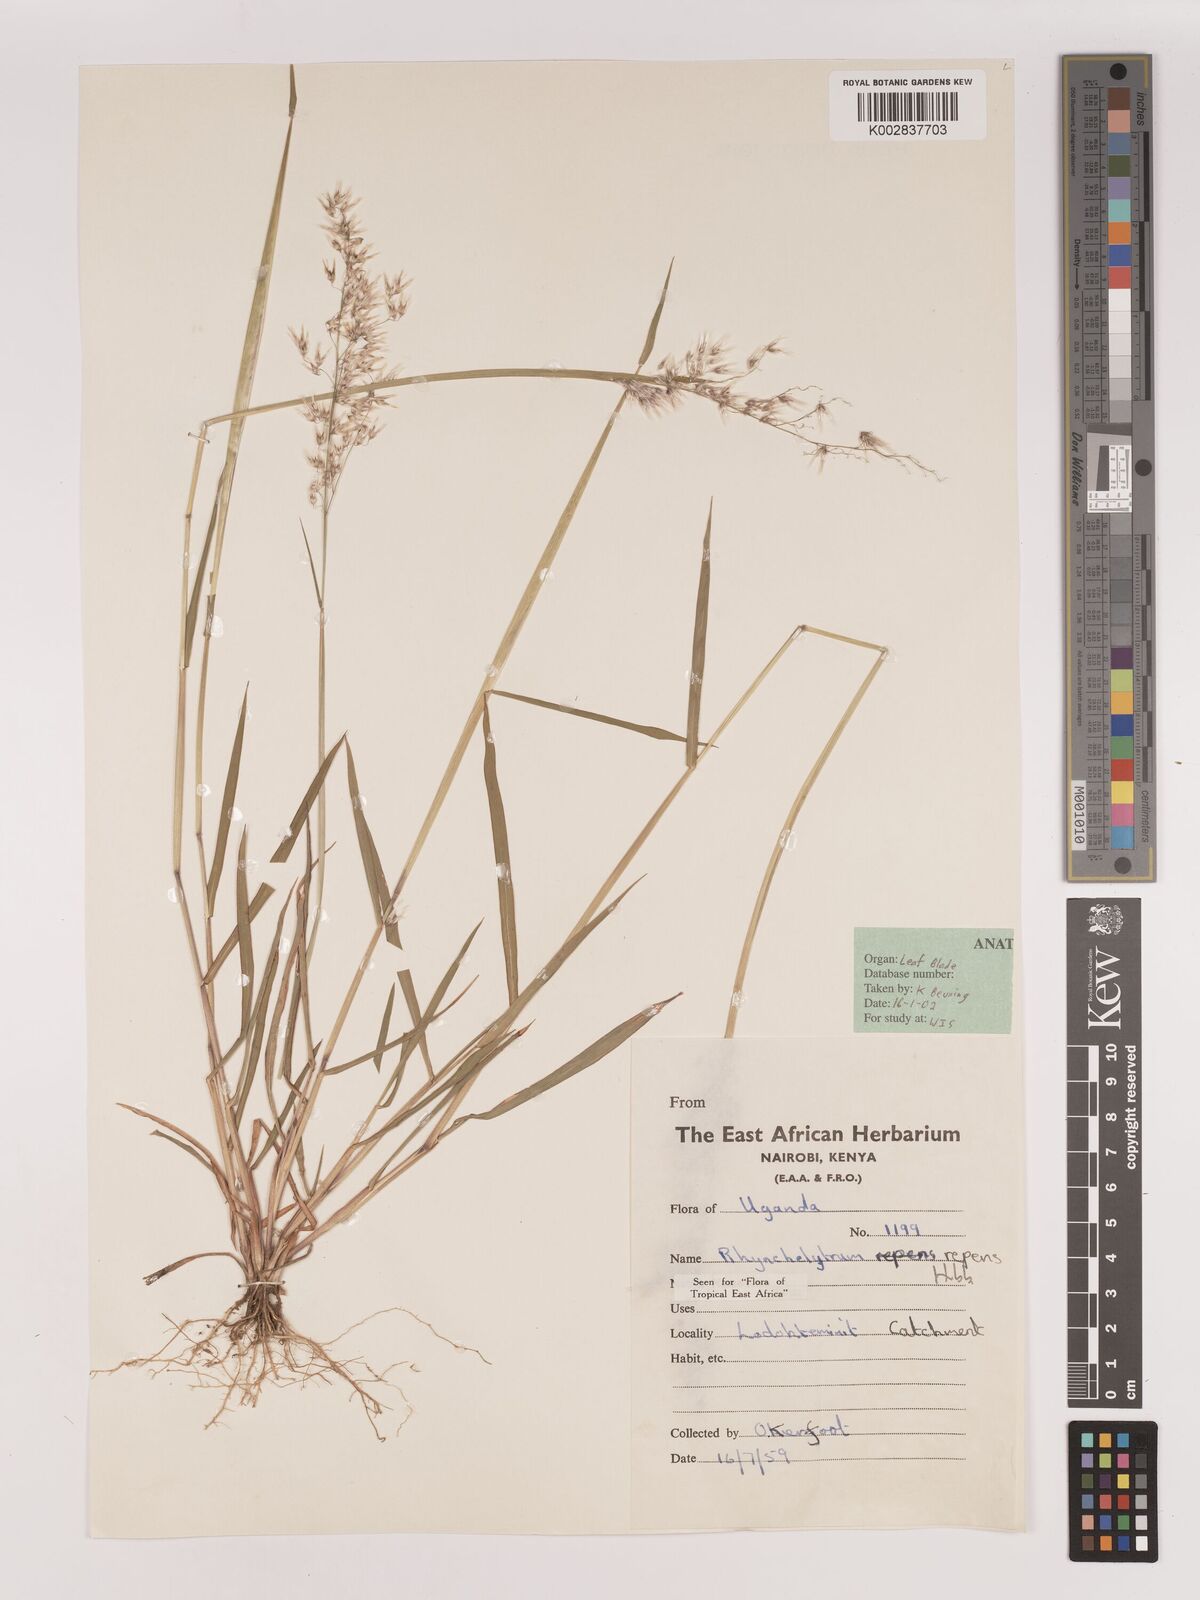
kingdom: Plantae
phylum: Tracheophyta
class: Liliopsida
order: Poales
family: Poaceae
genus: Melinis
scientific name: Melinis repens
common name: Rose natal grass
